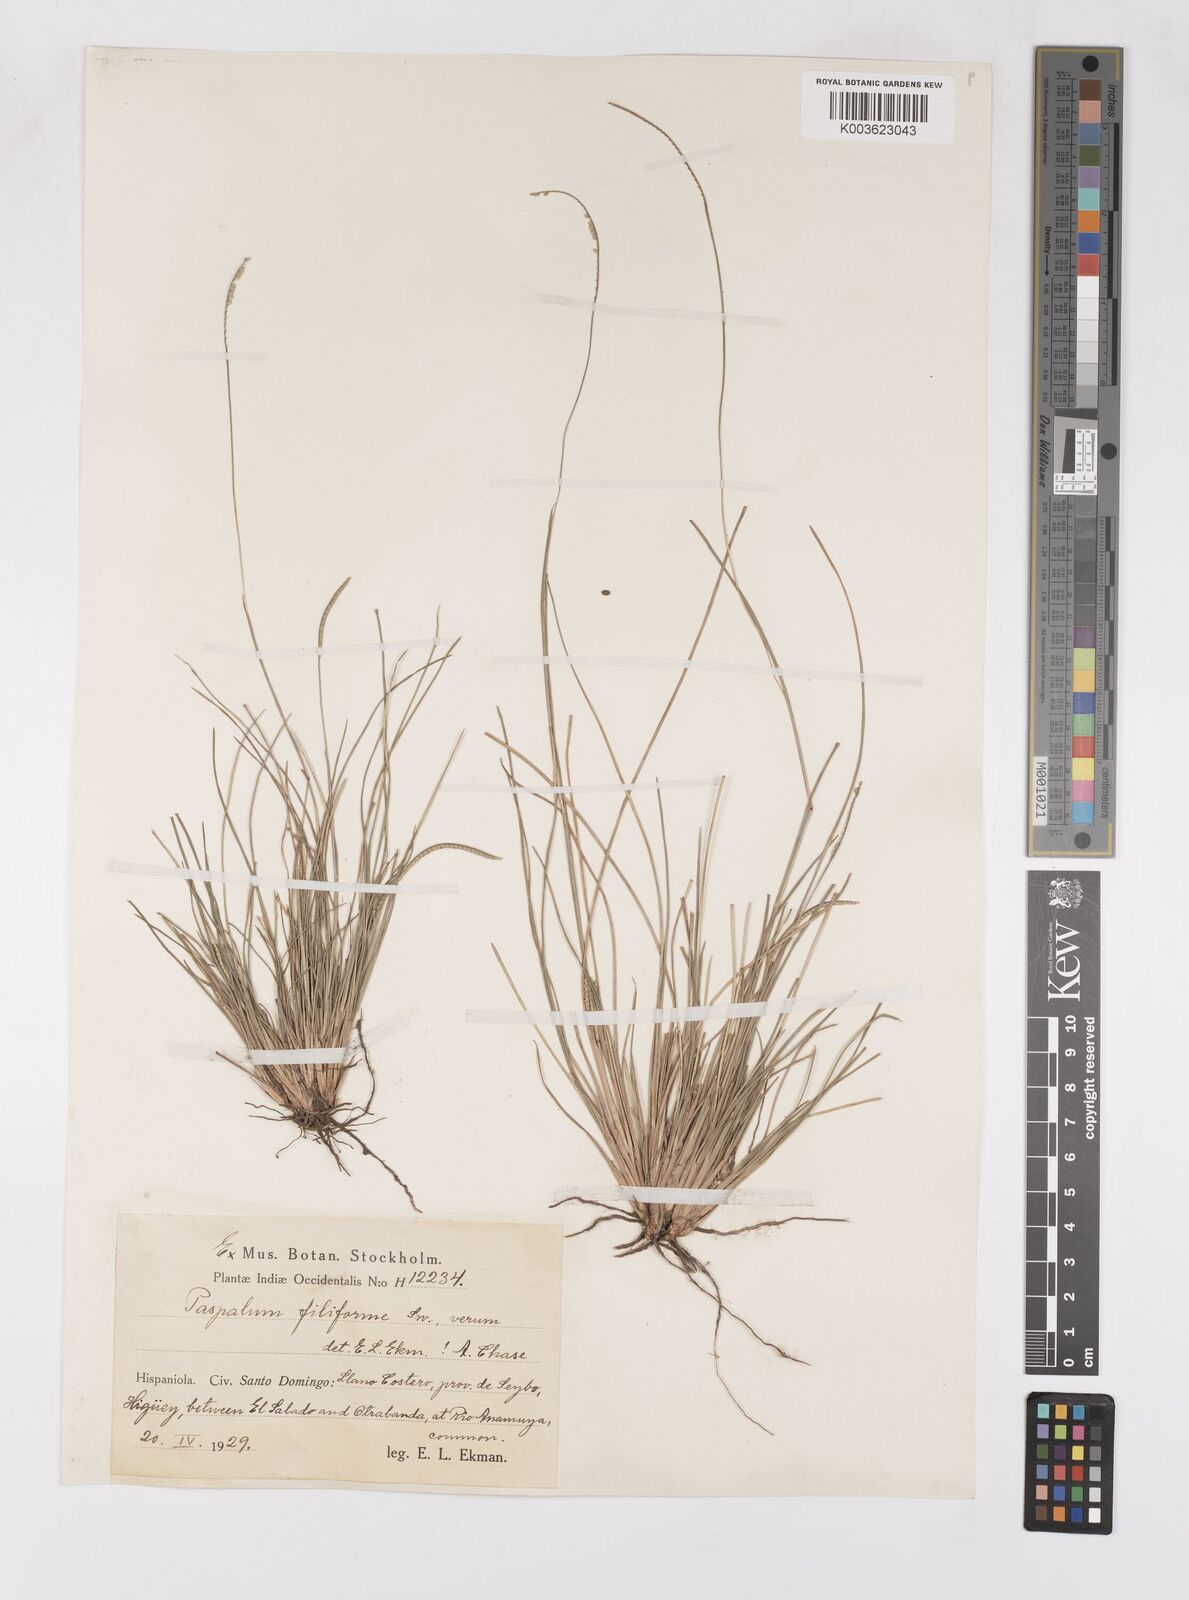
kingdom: Plantae
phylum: Tracheophyta
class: Liliopsida
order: Poales
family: Poaceae
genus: Paspalum
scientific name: Paspalum filiforme
